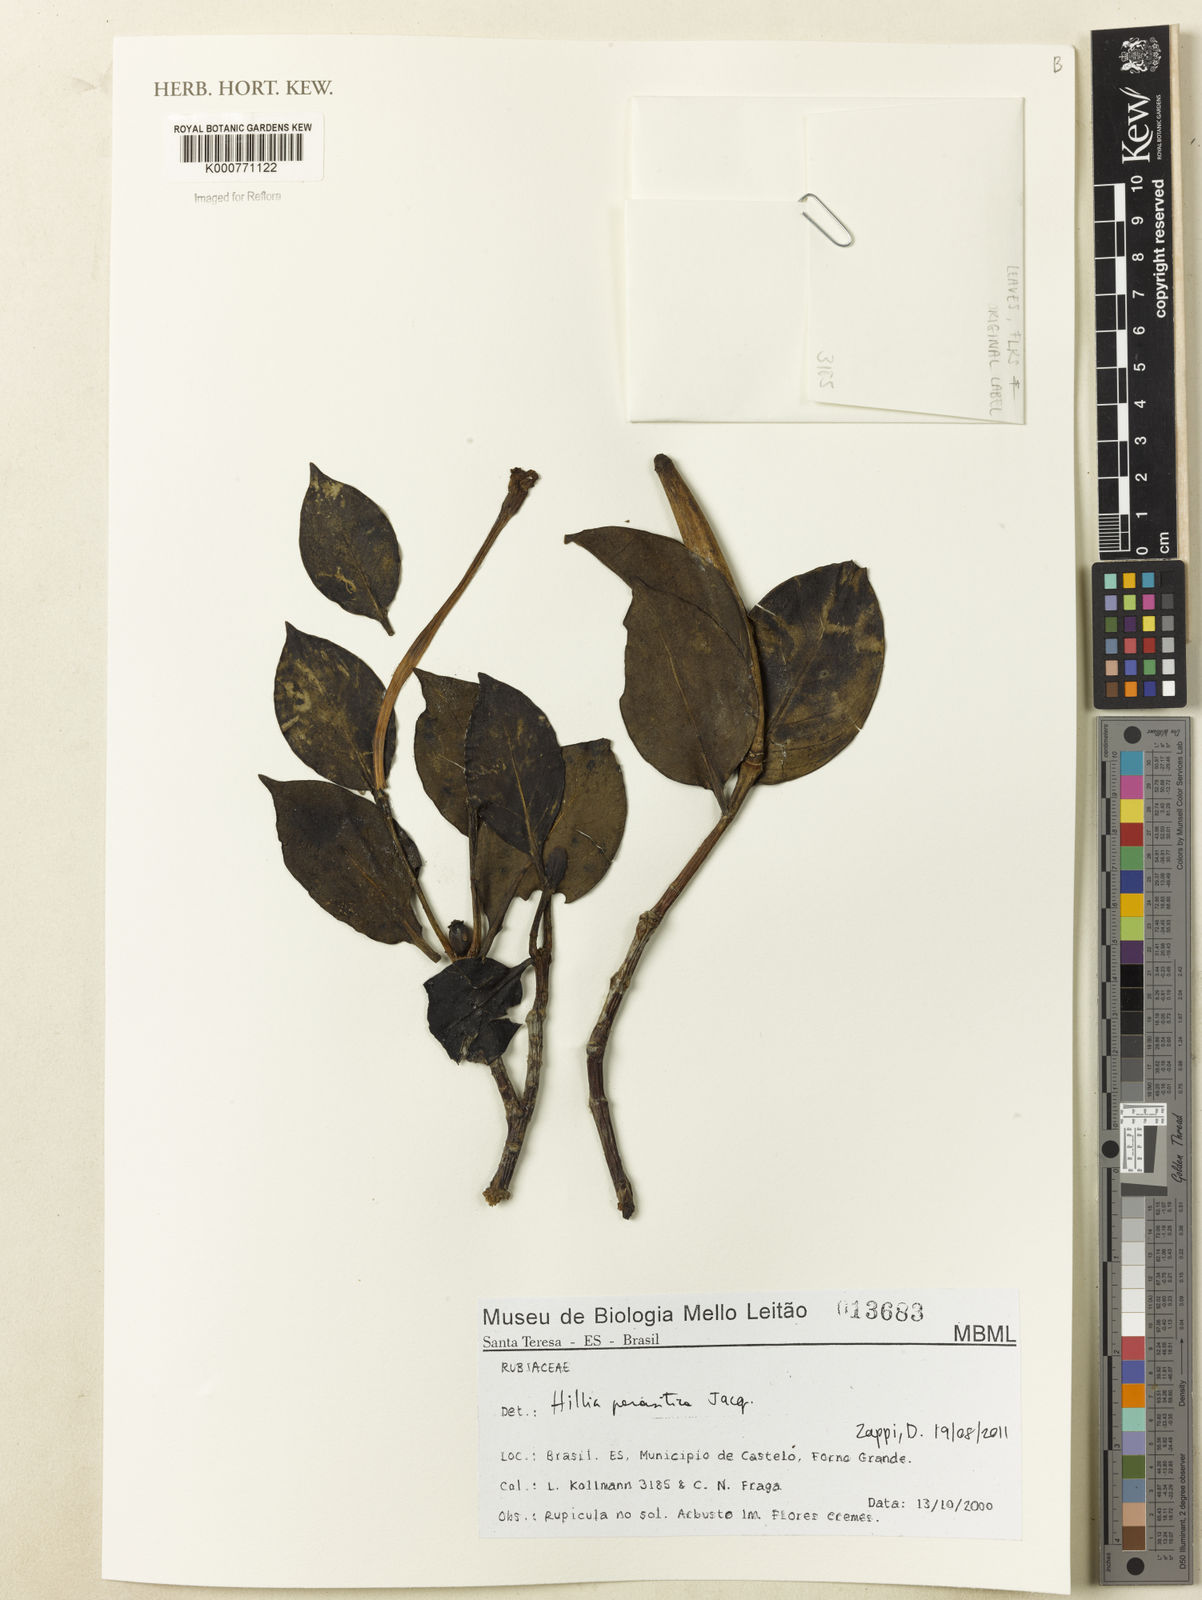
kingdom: Plantae
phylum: Tracheophyta
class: Magnoliopsida
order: Gentianales
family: Rubiaceae
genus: Hillia
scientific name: Hillia parasitica
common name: Morning star
